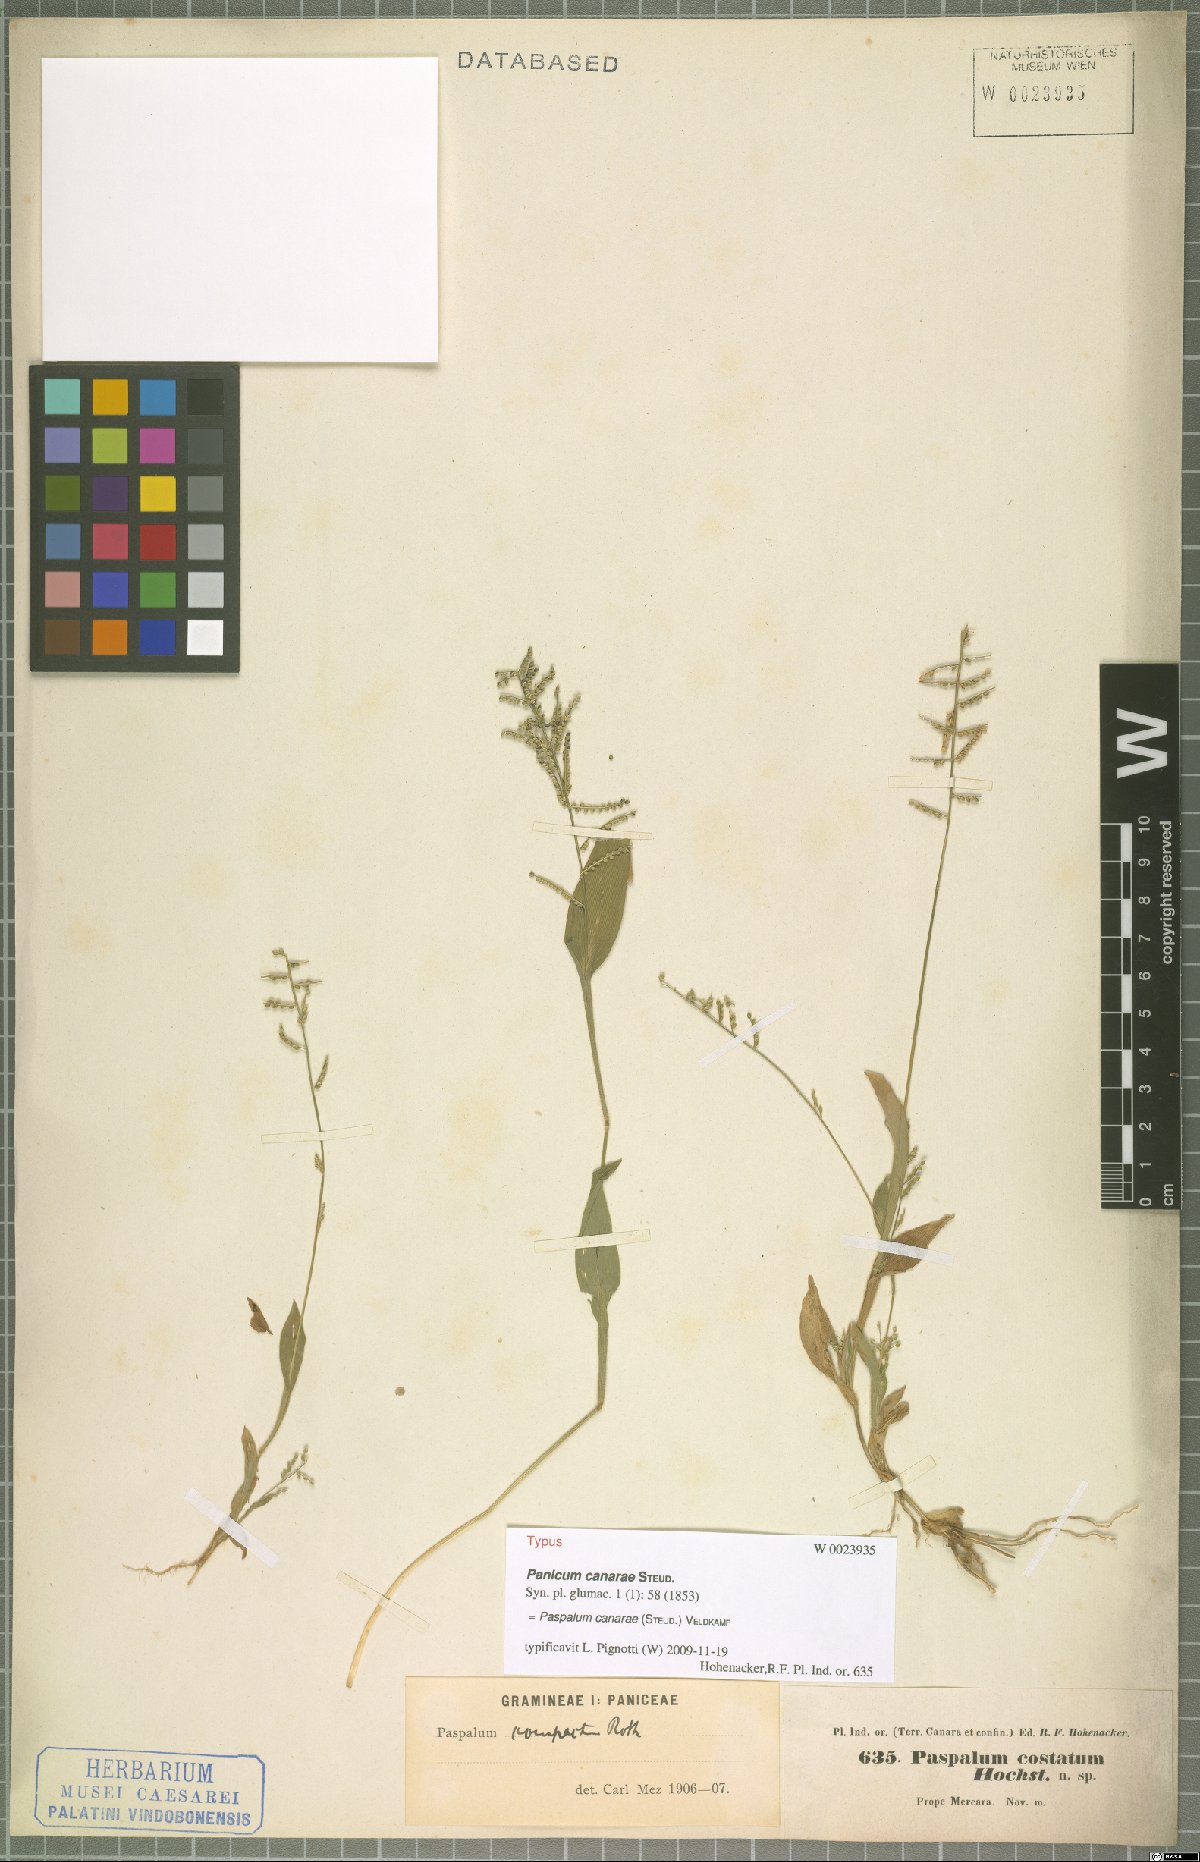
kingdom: Plantae
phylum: Tracheophyta
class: Liliopsida
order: Poales
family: Poaceae
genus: Paspalum
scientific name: Paspalum canarae
